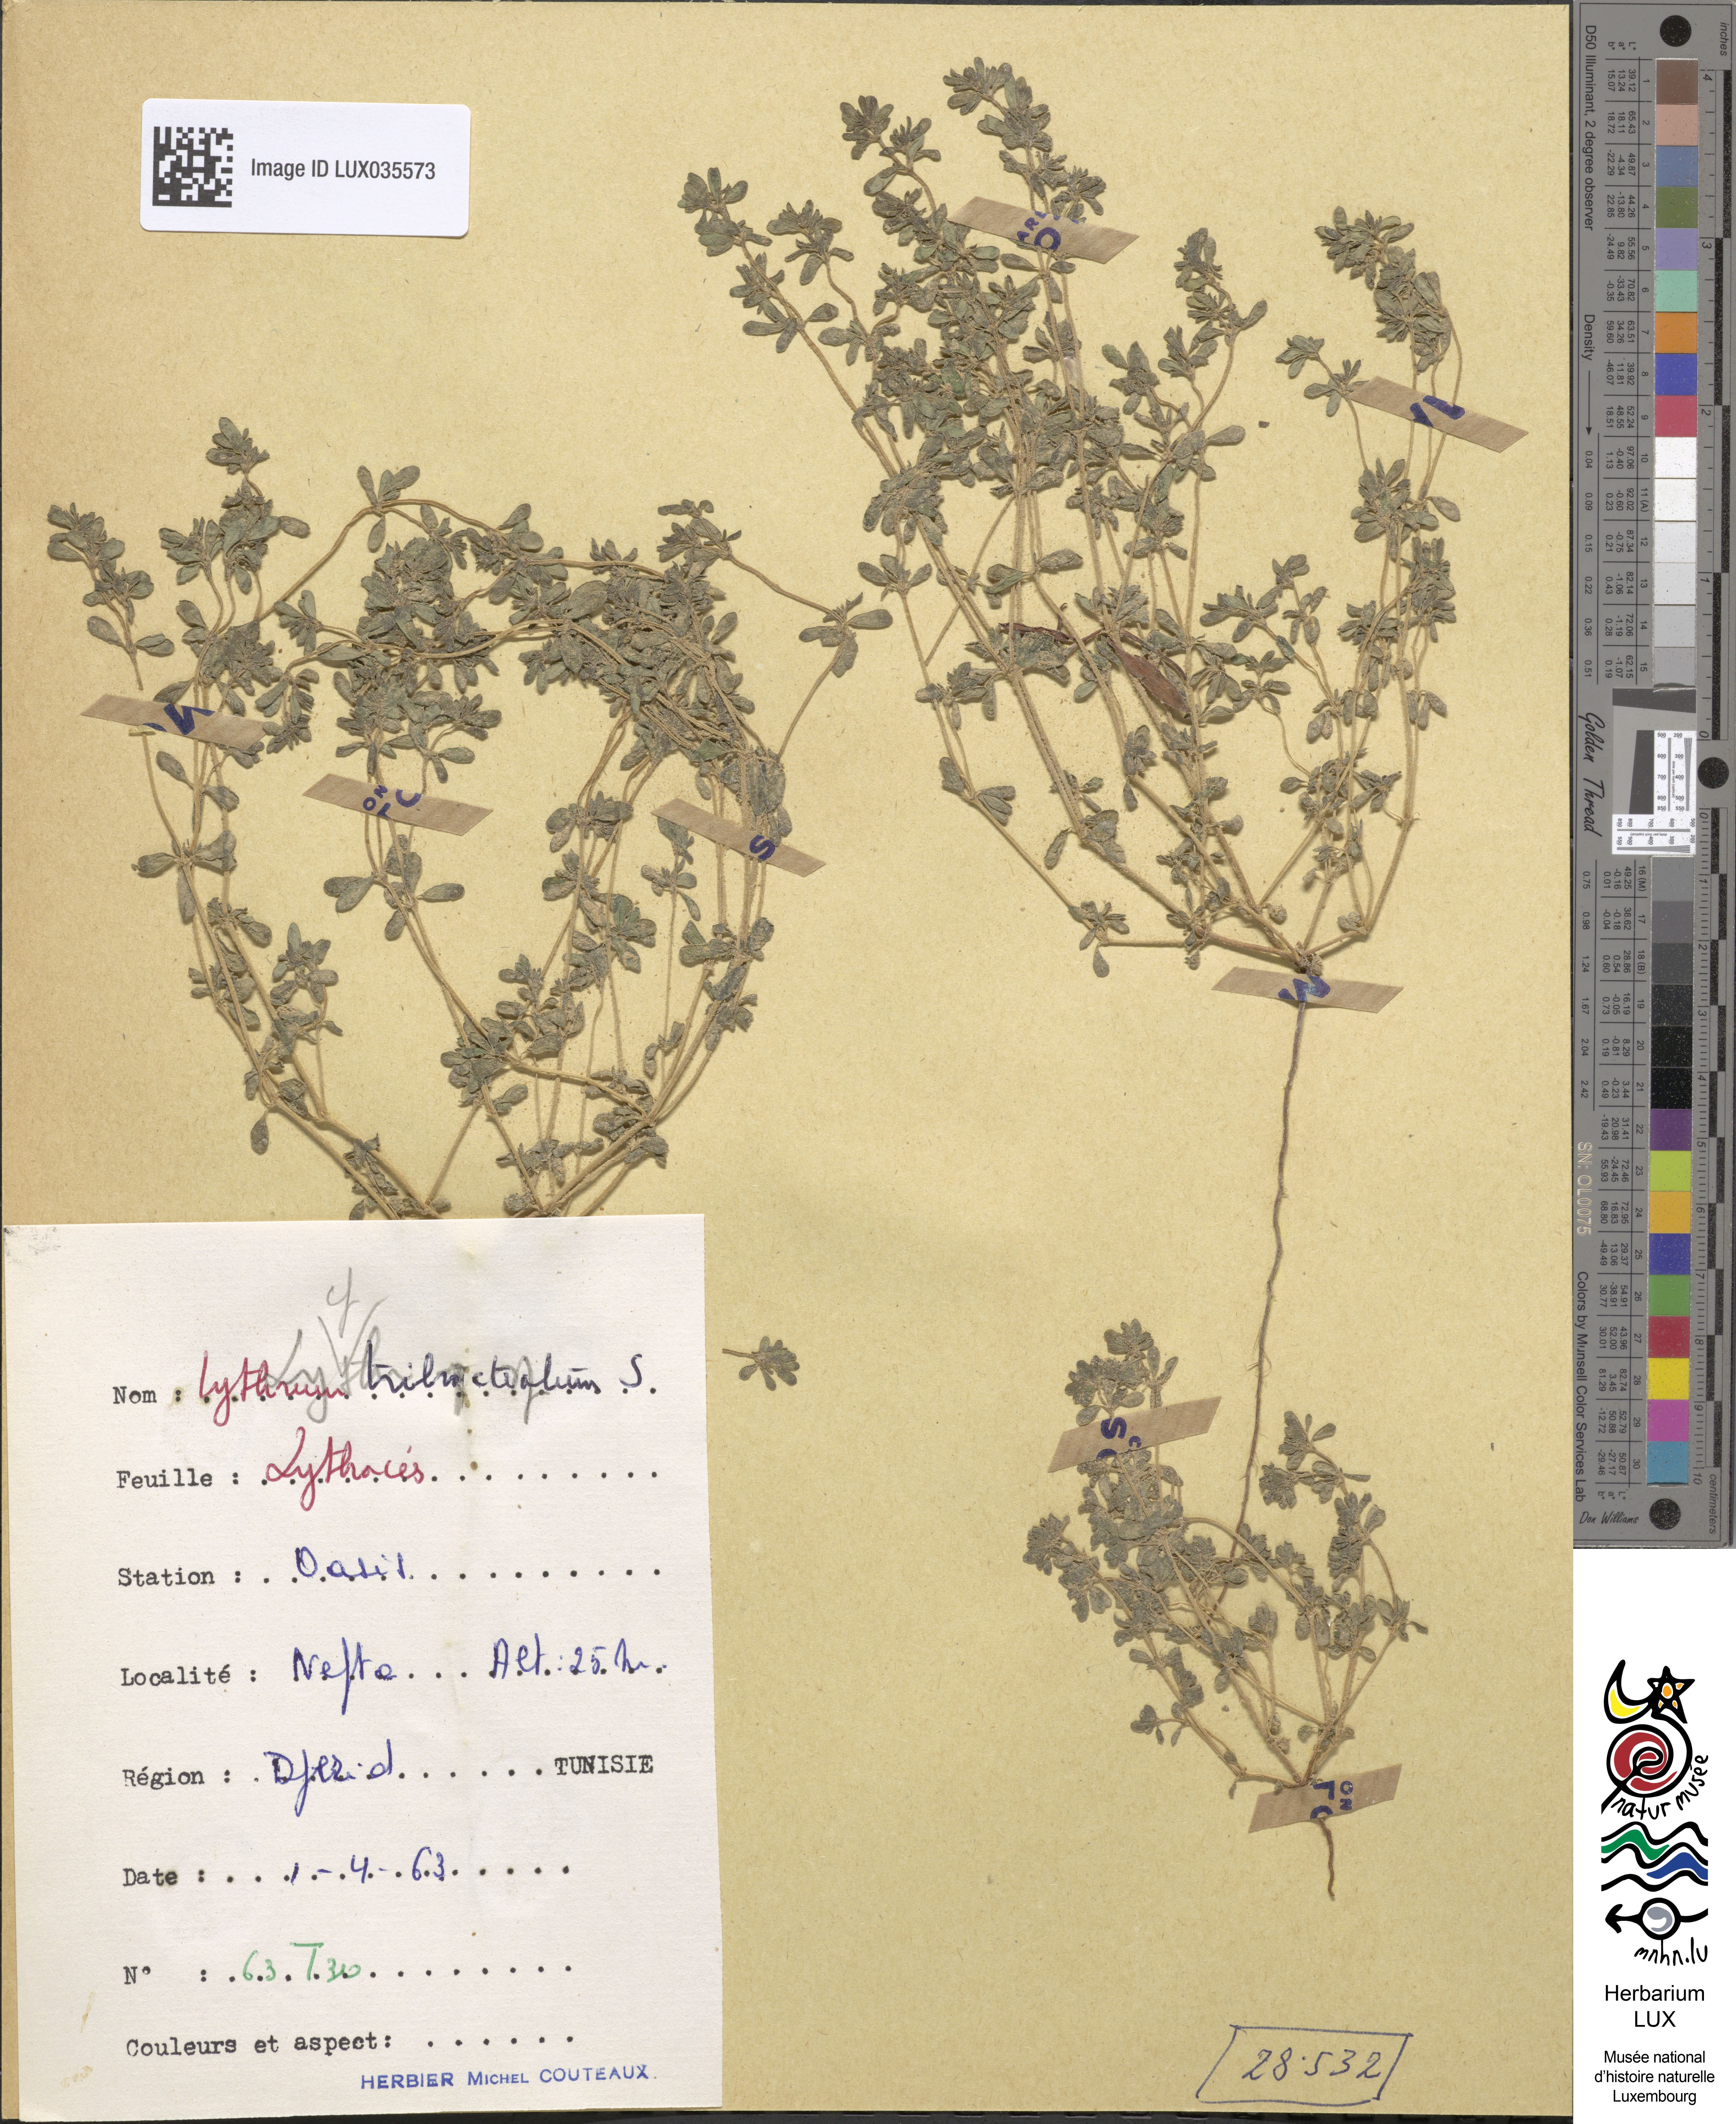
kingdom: Plantae
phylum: Tracheophyta
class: Magnoliopsida
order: Myrtales
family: Lythraceae
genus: Lythrum
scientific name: Lythrum tribracteatum
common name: Threebract loosestrife
